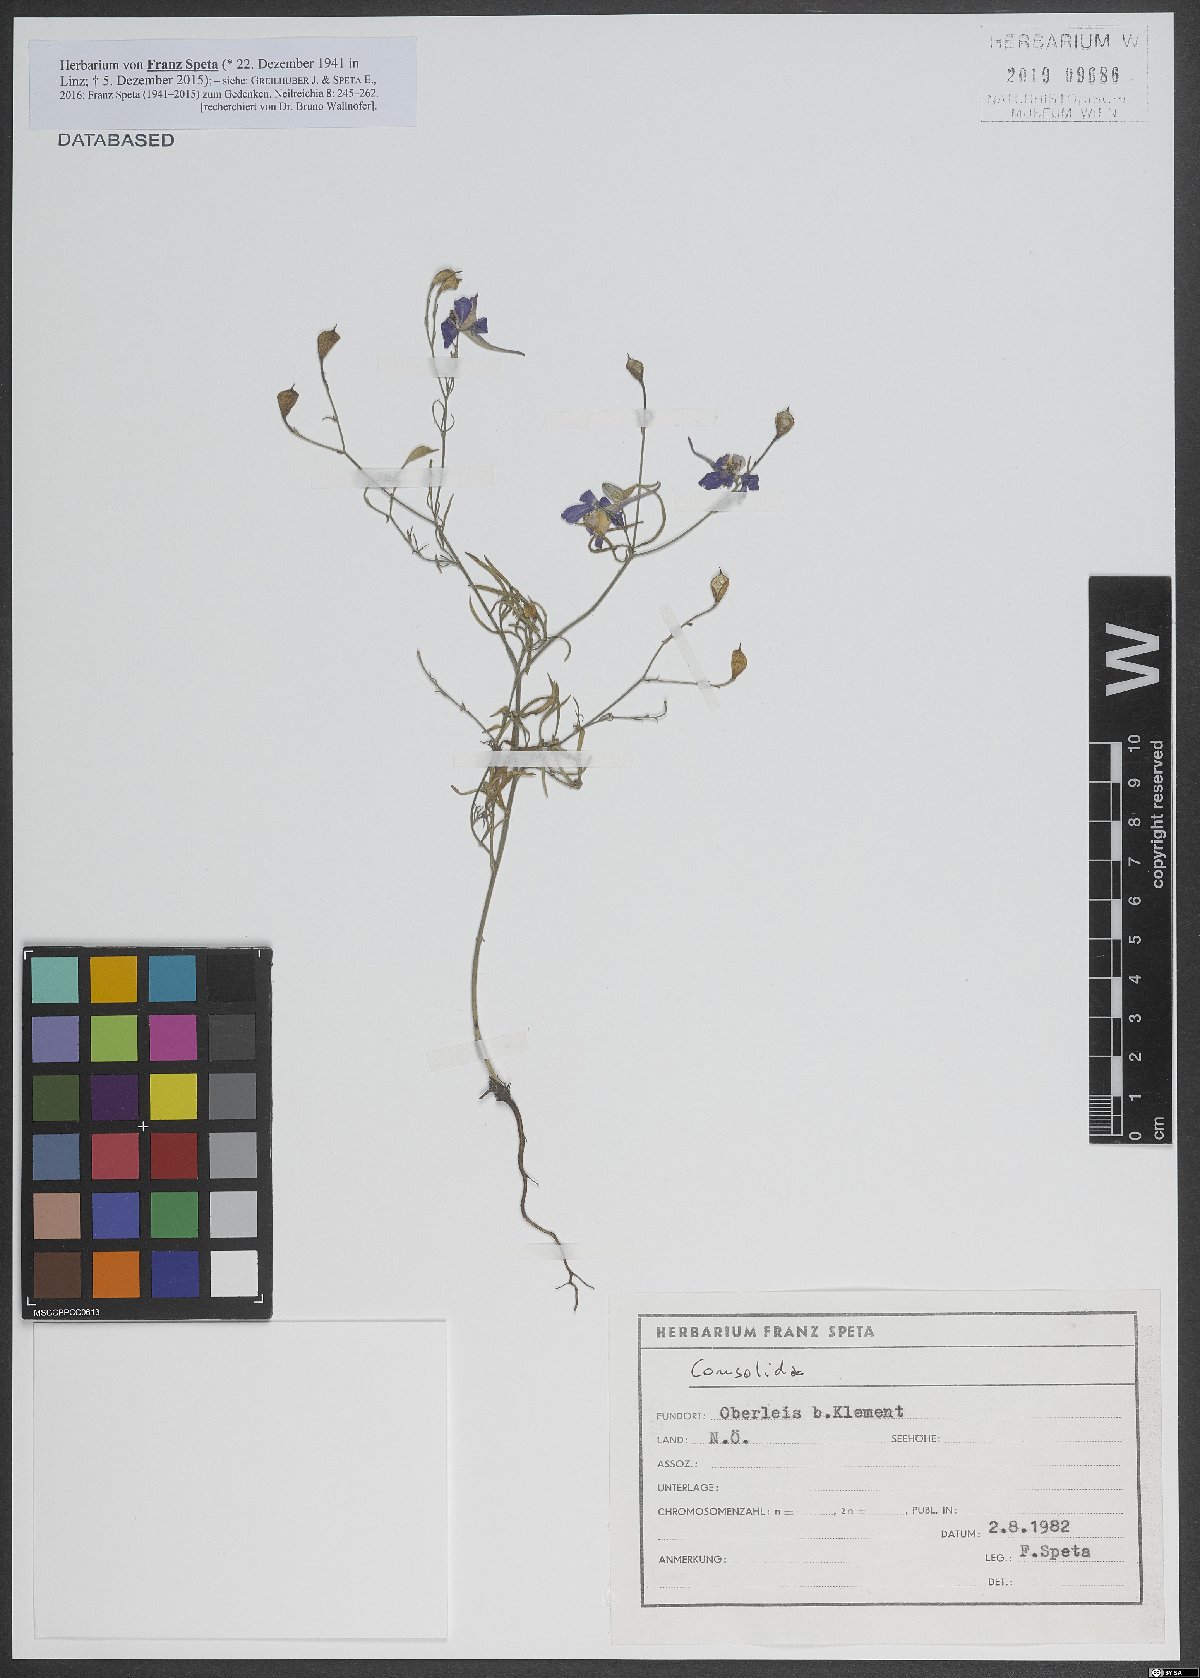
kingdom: Plantae
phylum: Tracheophyta
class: Magnoliopsida
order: Ranunculales
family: Ranunculaceae
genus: Delphinium
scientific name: Delphinium
